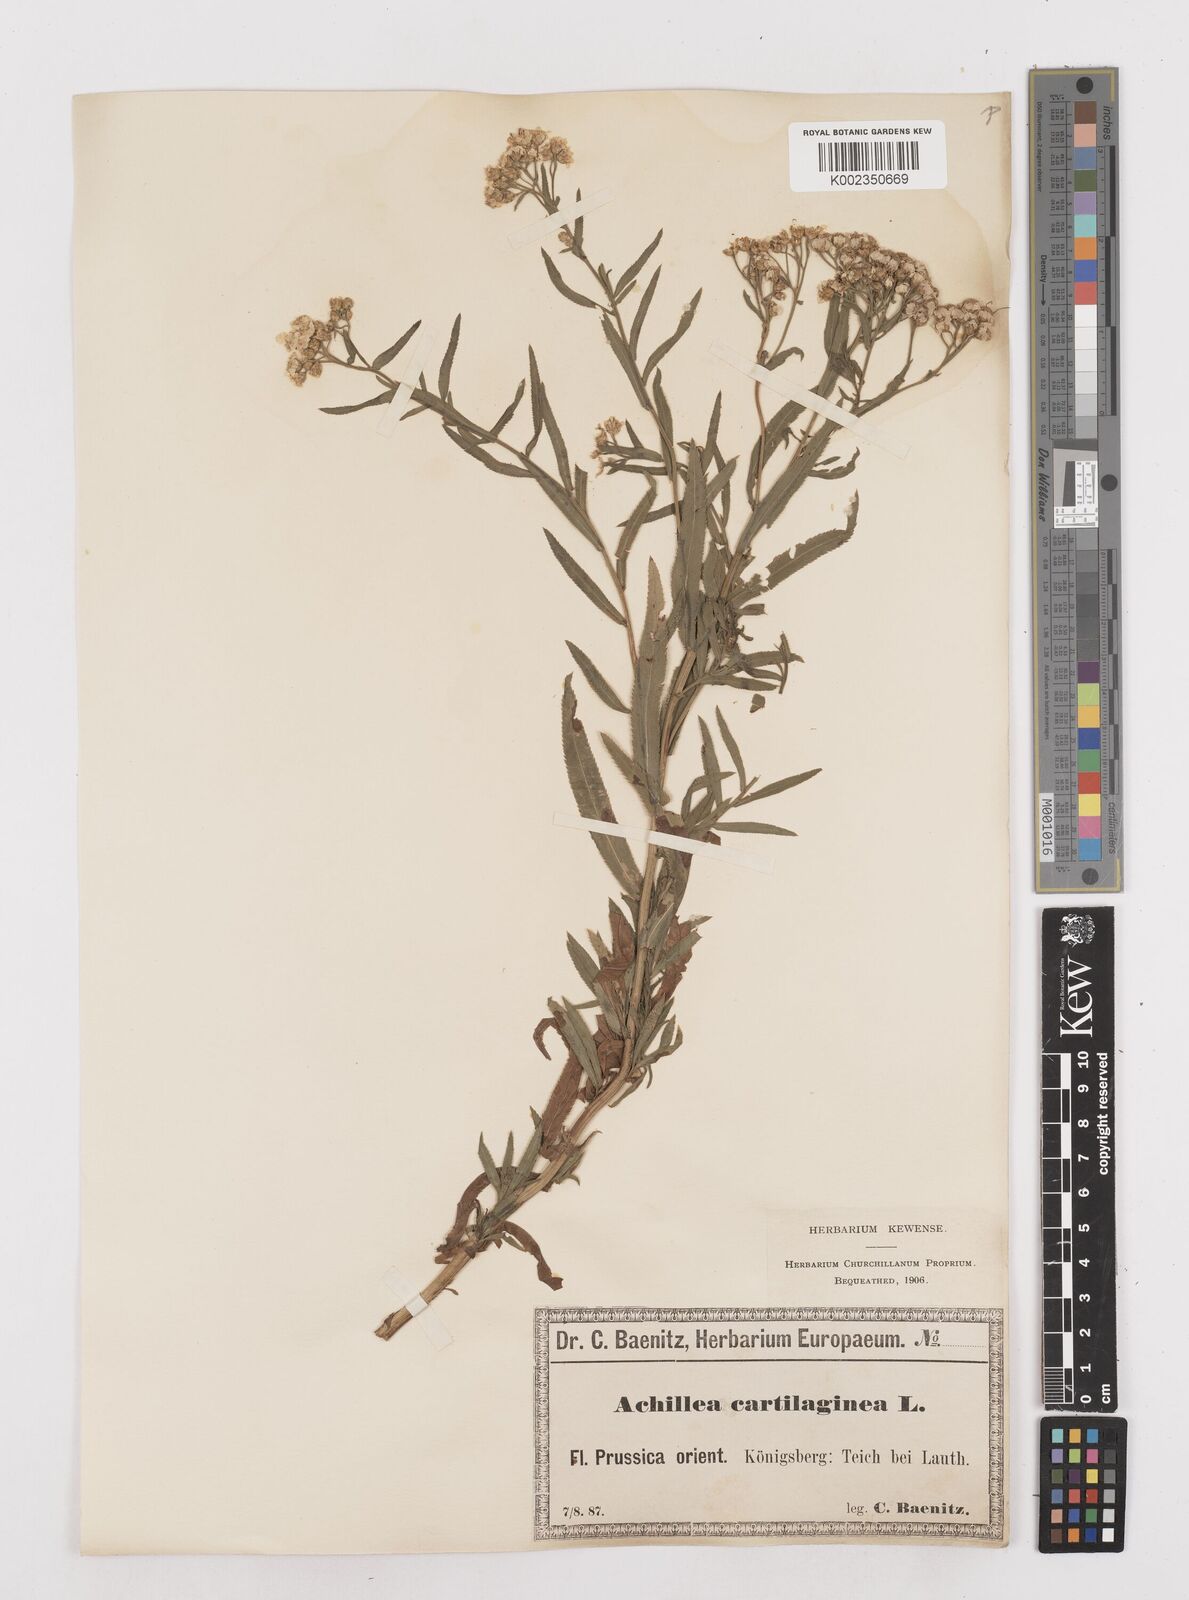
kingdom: Plantae
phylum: Tracheophyta
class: Magnoliopsida
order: Asterales
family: Asteraceae
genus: Achillea
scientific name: Achillea salicifolia
